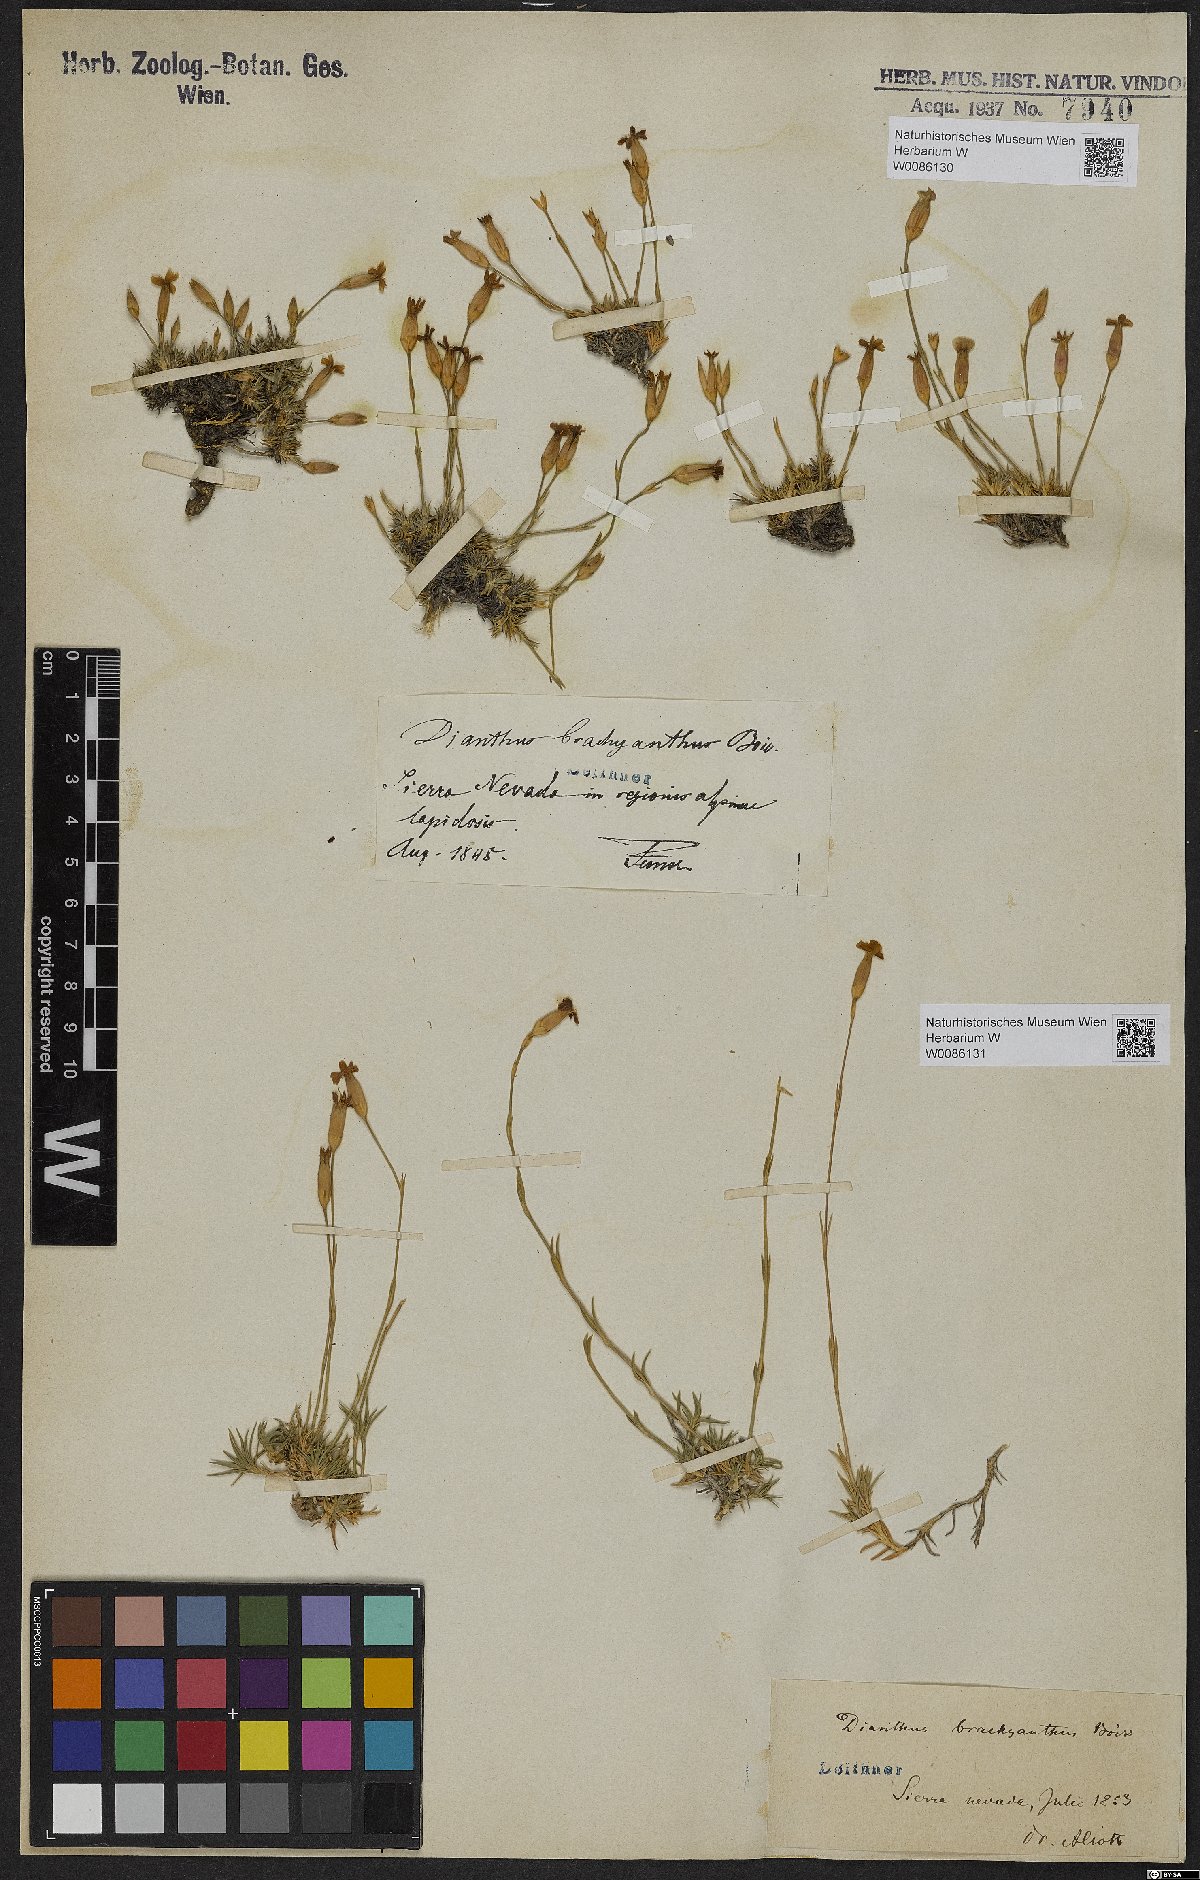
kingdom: Plantae
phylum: Tracheophyta
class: Magnoliopsida
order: Caryophyllales
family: Caryophyllaceae
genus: Dianthus
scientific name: Dianthus pungens
